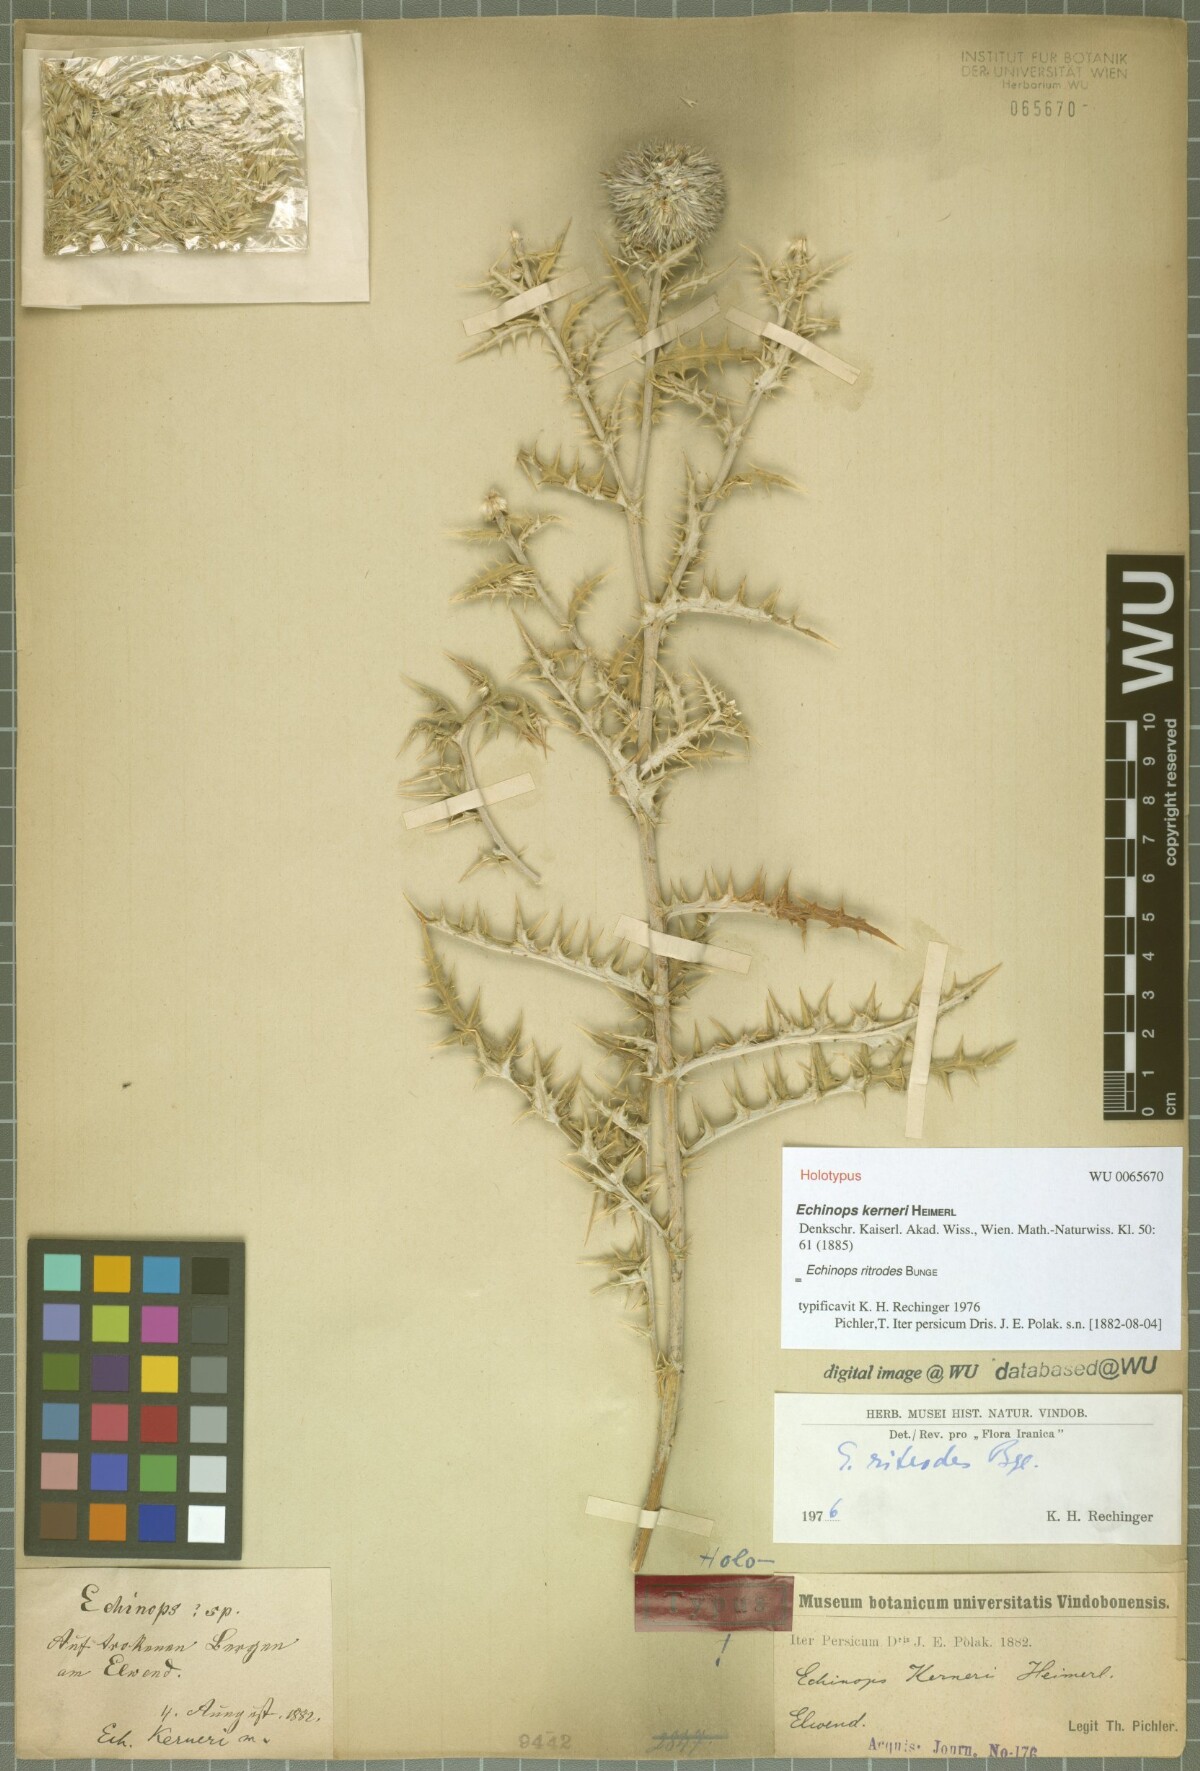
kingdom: Plantae
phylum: Tracheophyta
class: Magnoliopsida
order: Asterales
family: Asteraceae
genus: Echinops
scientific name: Echinops kerneri
